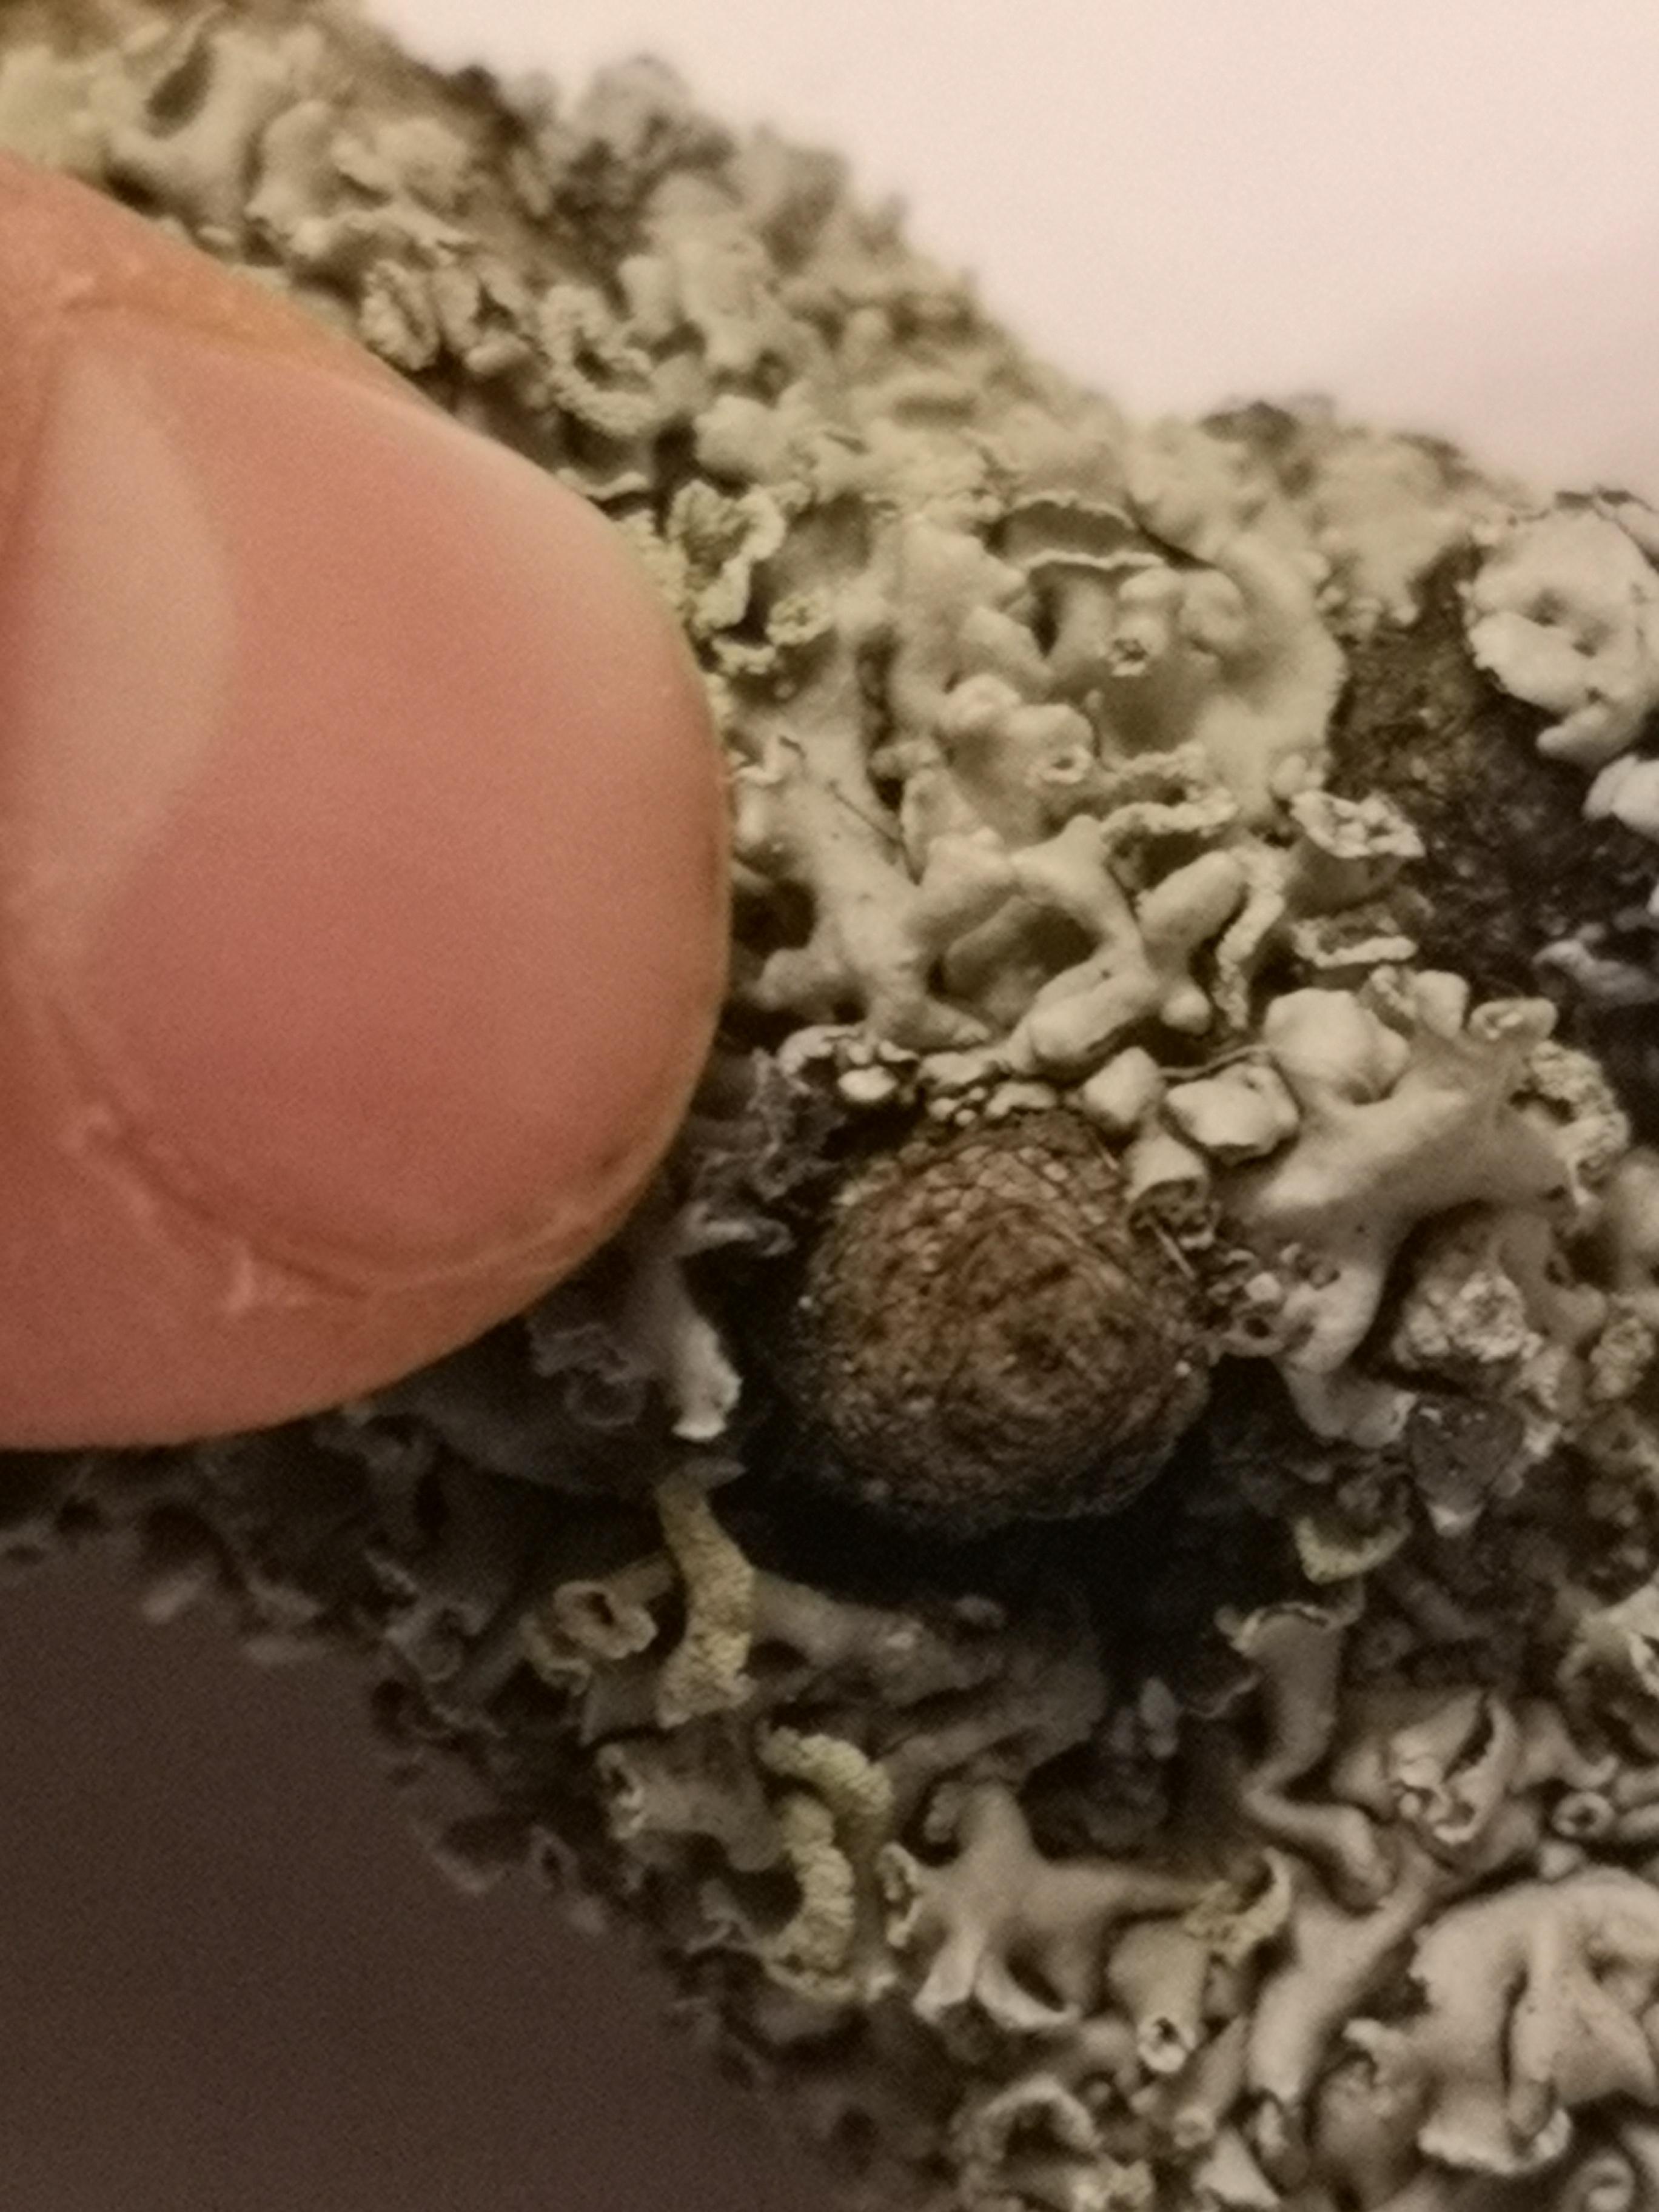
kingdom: Fungi
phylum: Ascomycota
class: Lecanoromycetes
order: Lecanorales
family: Parmeliaceae
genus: Hypogymnia
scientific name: Hypogymnia physodes
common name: almindelig kvistlav
